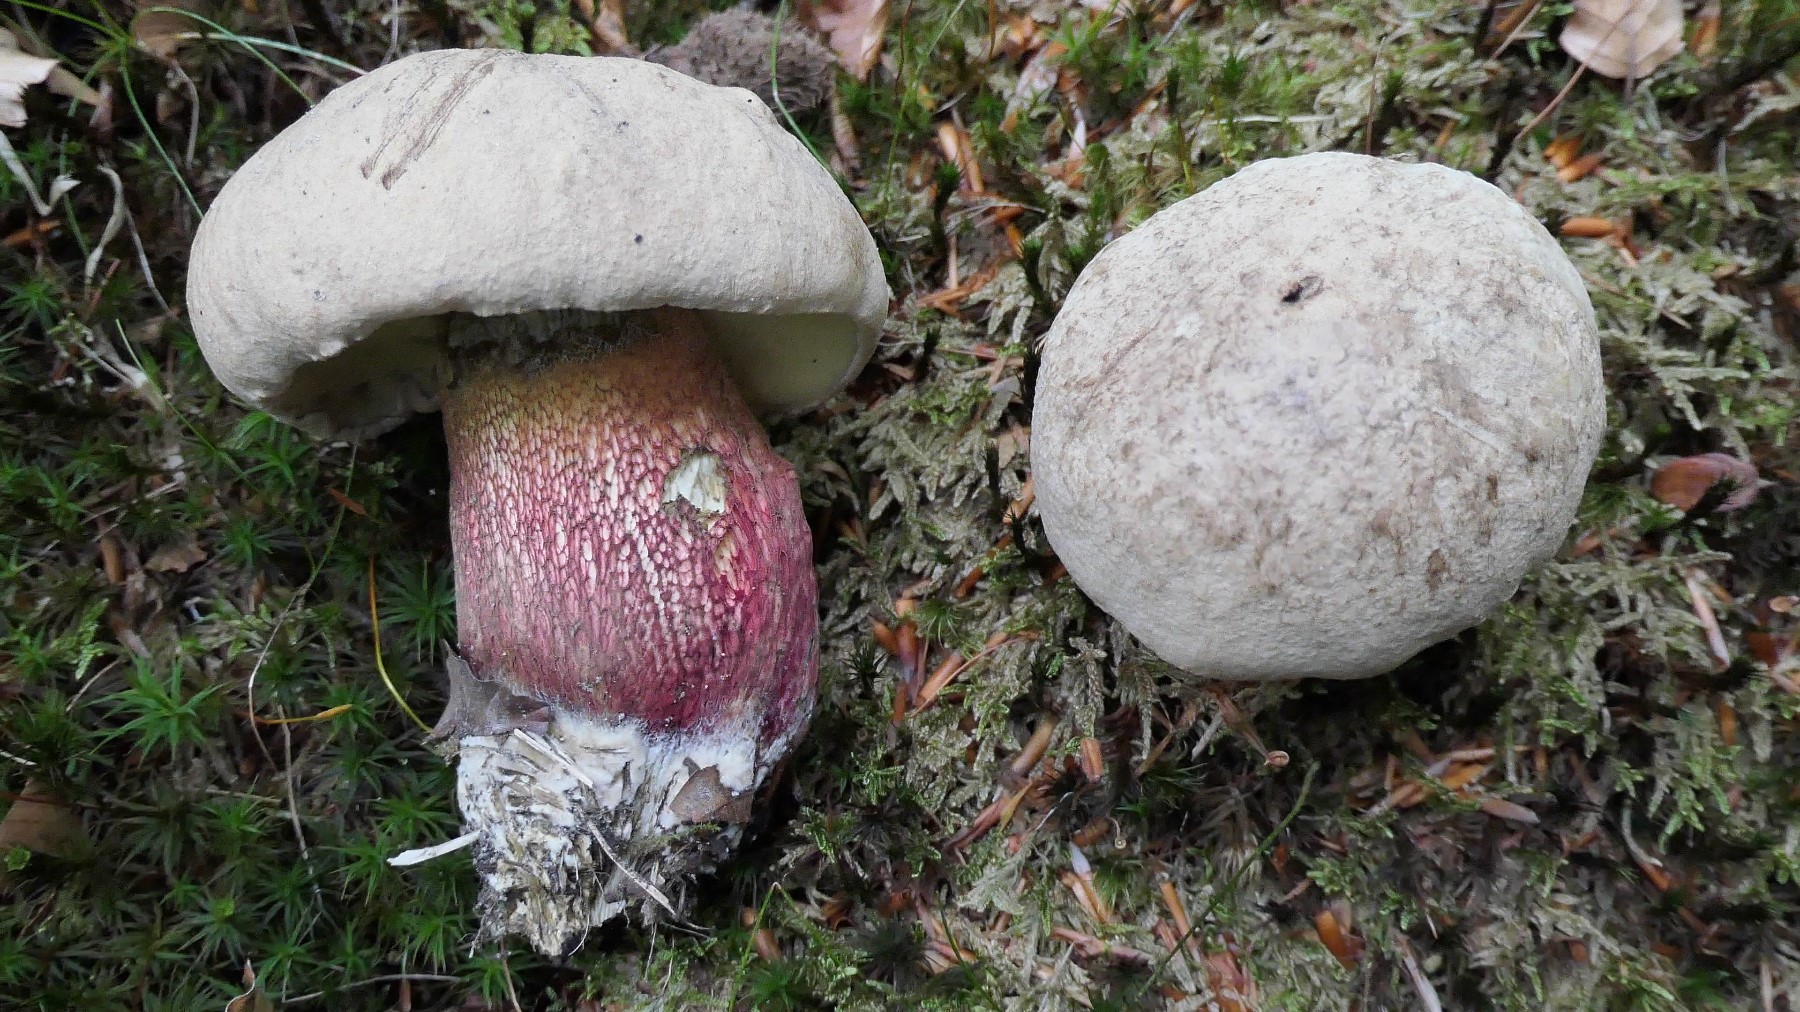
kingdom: Fungi
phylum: Basidiomycota
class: Agaricomycetes
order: Boletales
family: Boletaceae
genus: Caloboletus
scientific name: Caloboletus calopus
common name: skønfodet rørhat
